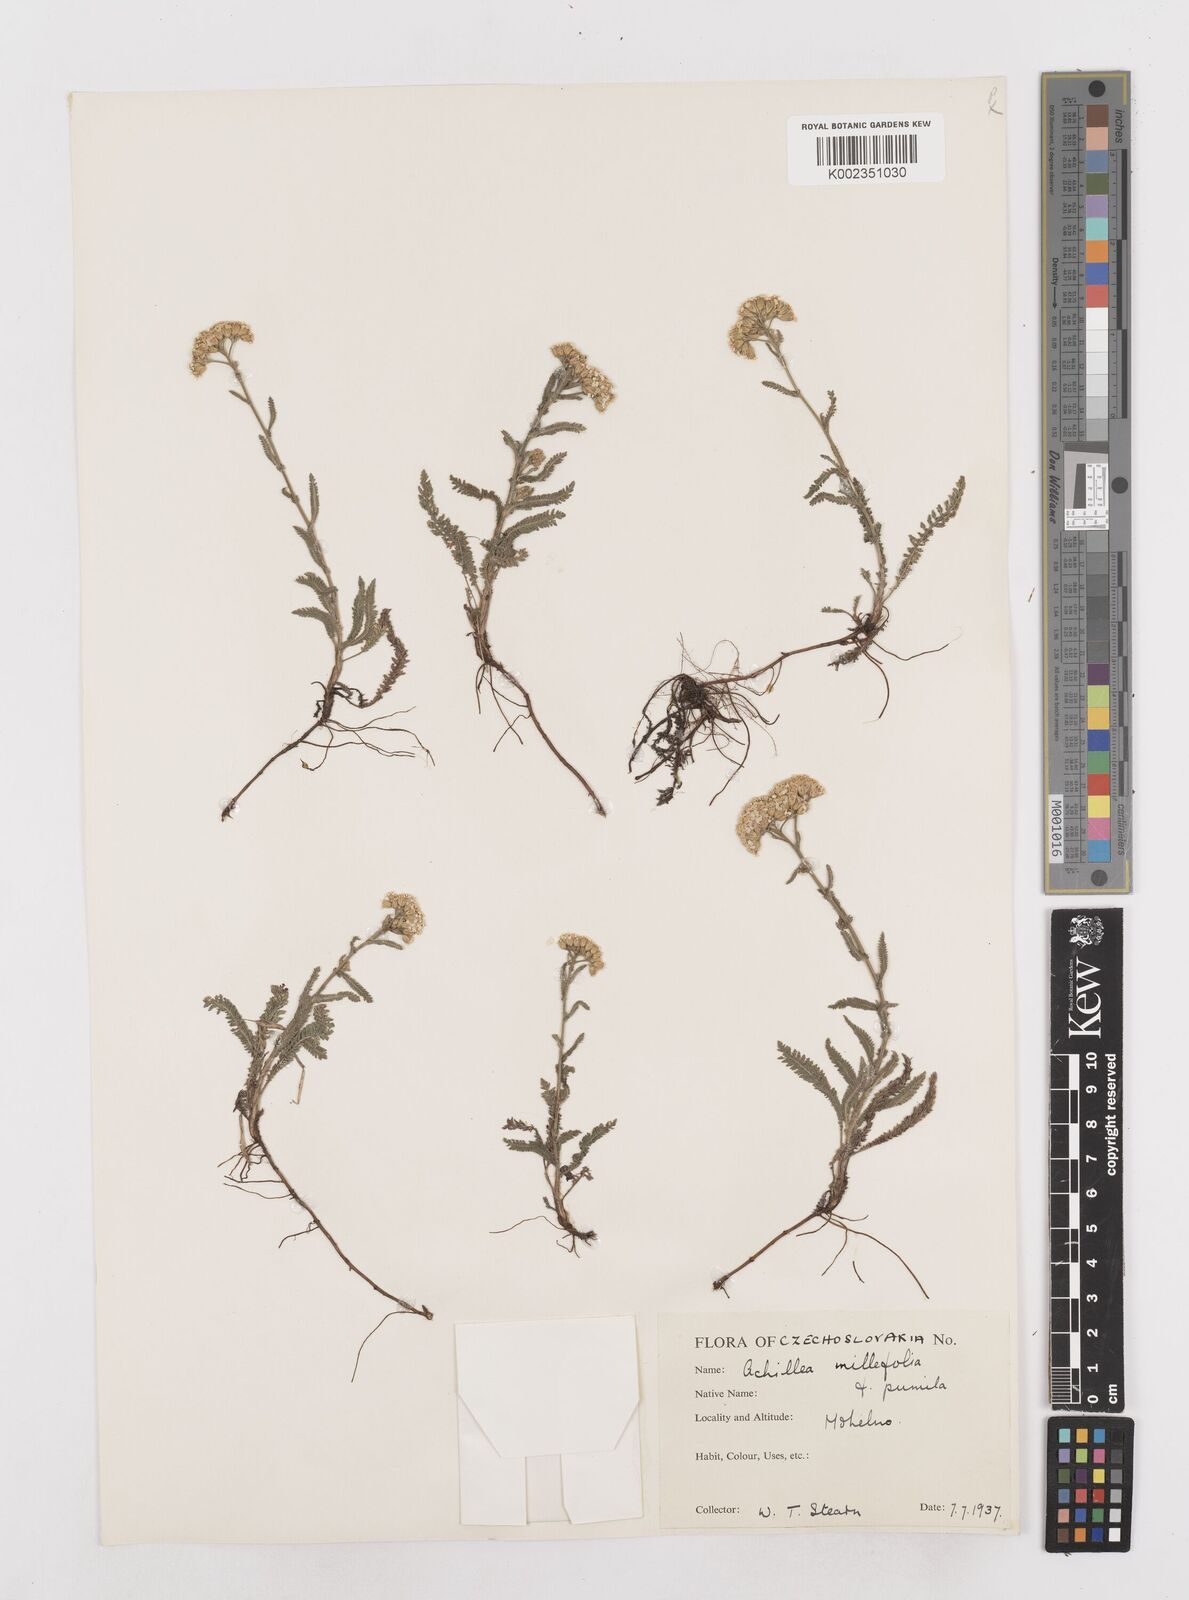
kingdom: Plantae
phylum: Tracheophyta
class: Magnoliopsida
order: Asterales
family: Asteraceae
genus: Achillea
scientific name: Achillea millefolium
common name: Yarrow
